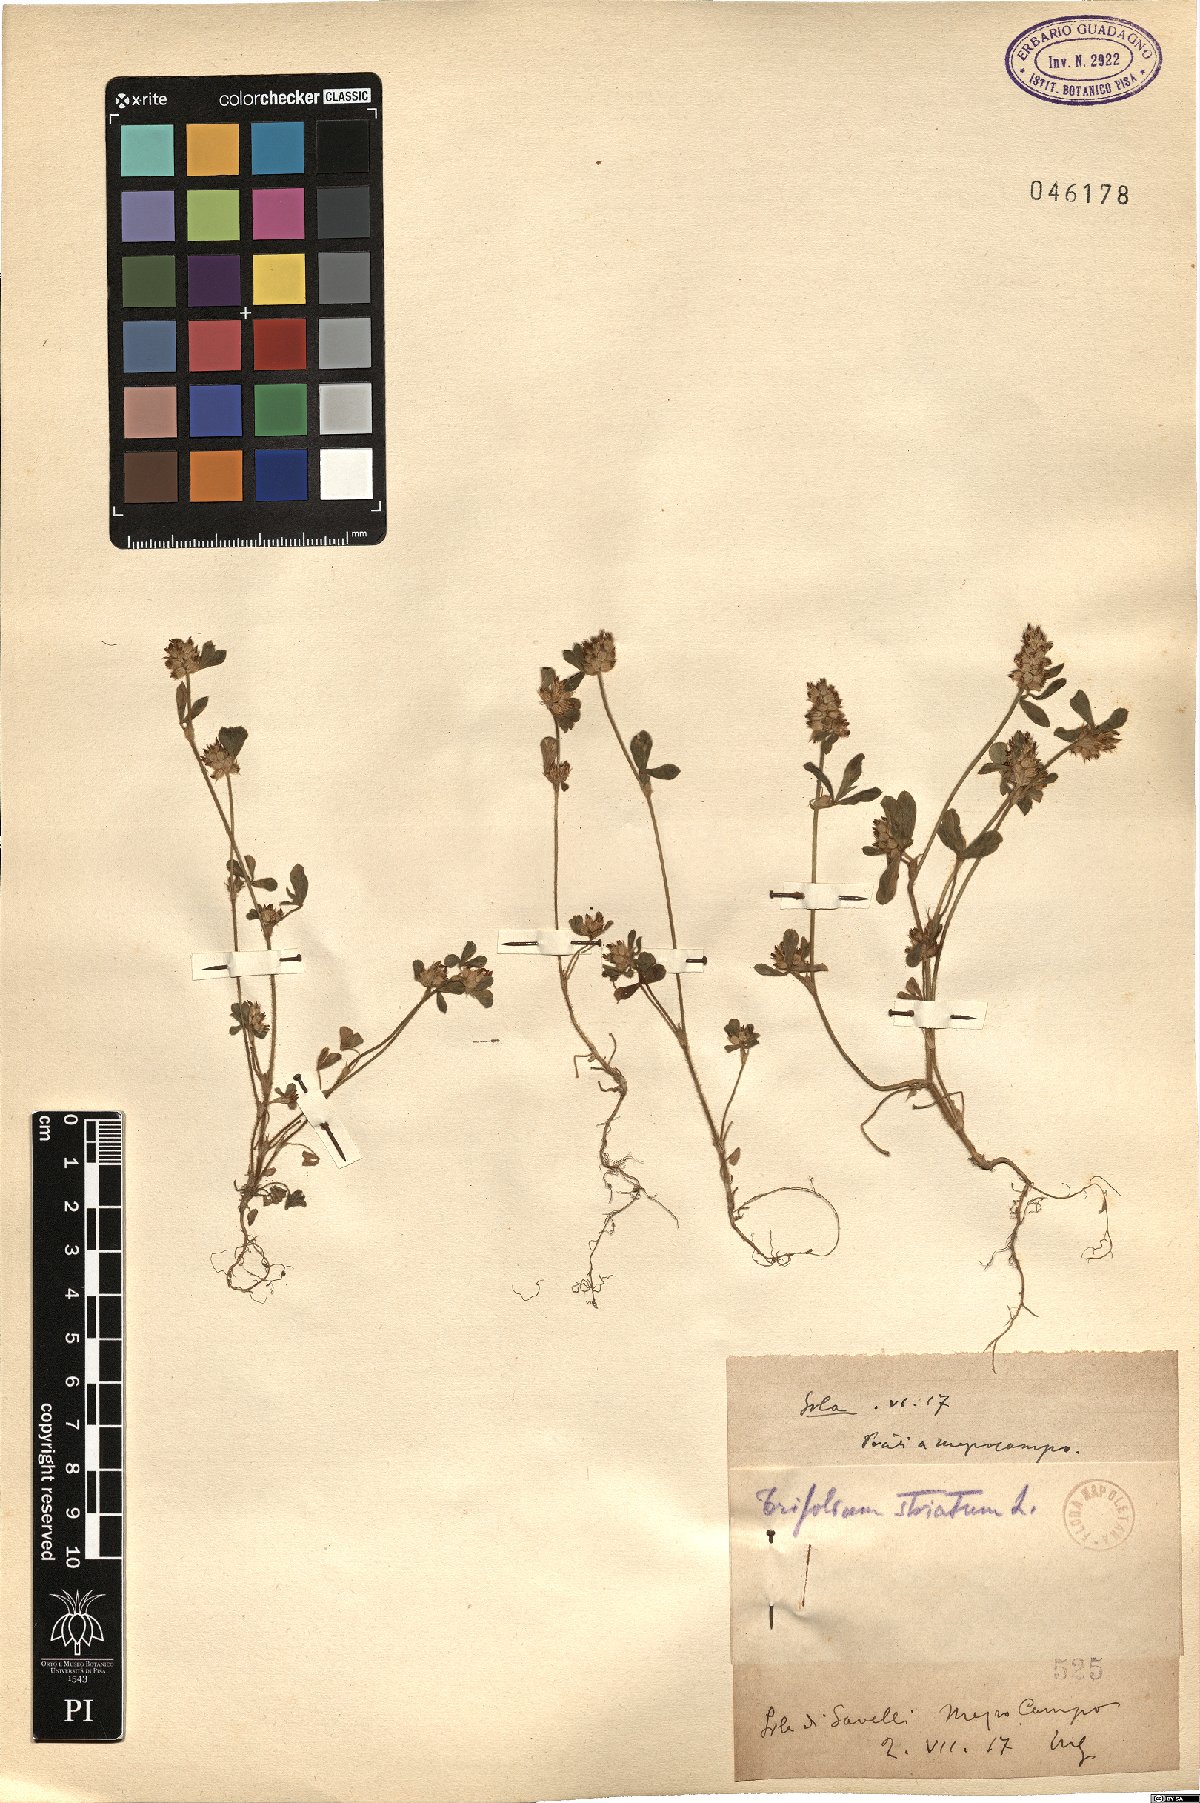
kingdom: Plantae
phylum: Tracheophyta
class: Magnoliopsida
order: Fabales
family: Fabaceae
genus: Trifolium
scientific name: Trifolium striatum
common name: Knotted clover
